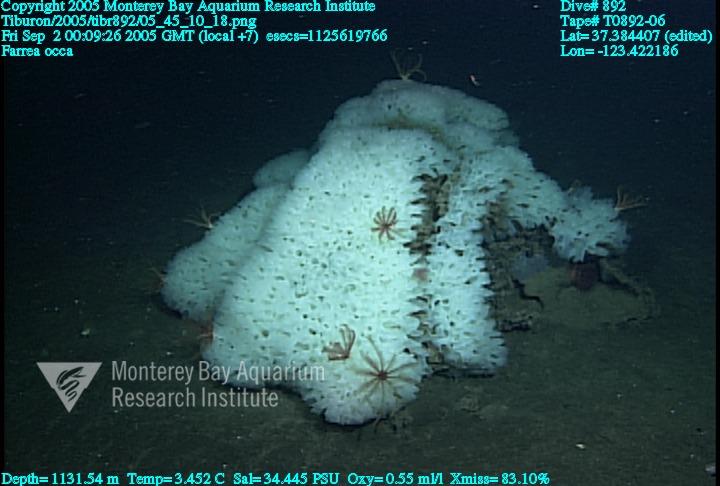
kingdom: Animalia
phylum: Porifera
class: Hexactinellida
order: Sceptrulophora
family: Farreidae
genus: Farrea
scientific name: Farrea occa
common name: Reversed glass sponge
